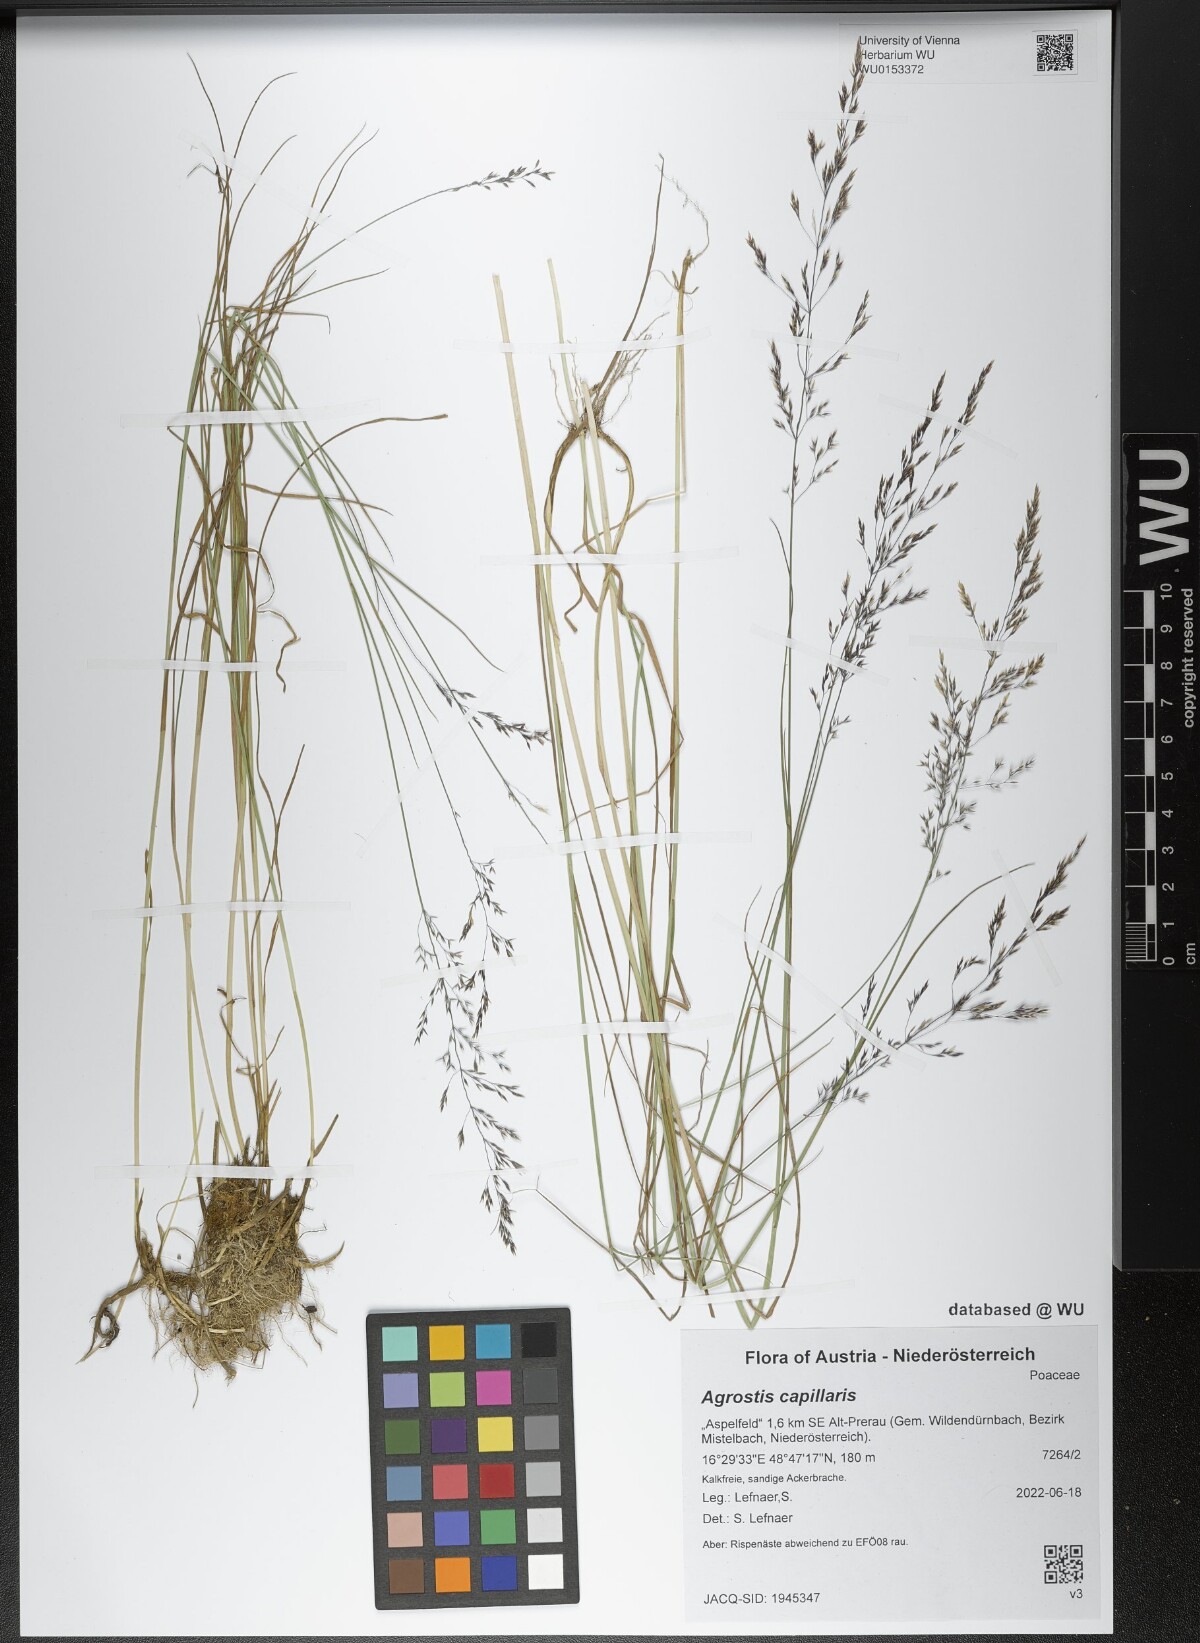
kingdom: Plantae
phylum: Tracheophyta
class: Liliopsida
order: Poales
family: Poaceae
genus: Agrostis
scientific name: Agrostis capillaris
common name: Colonial bentgrass
